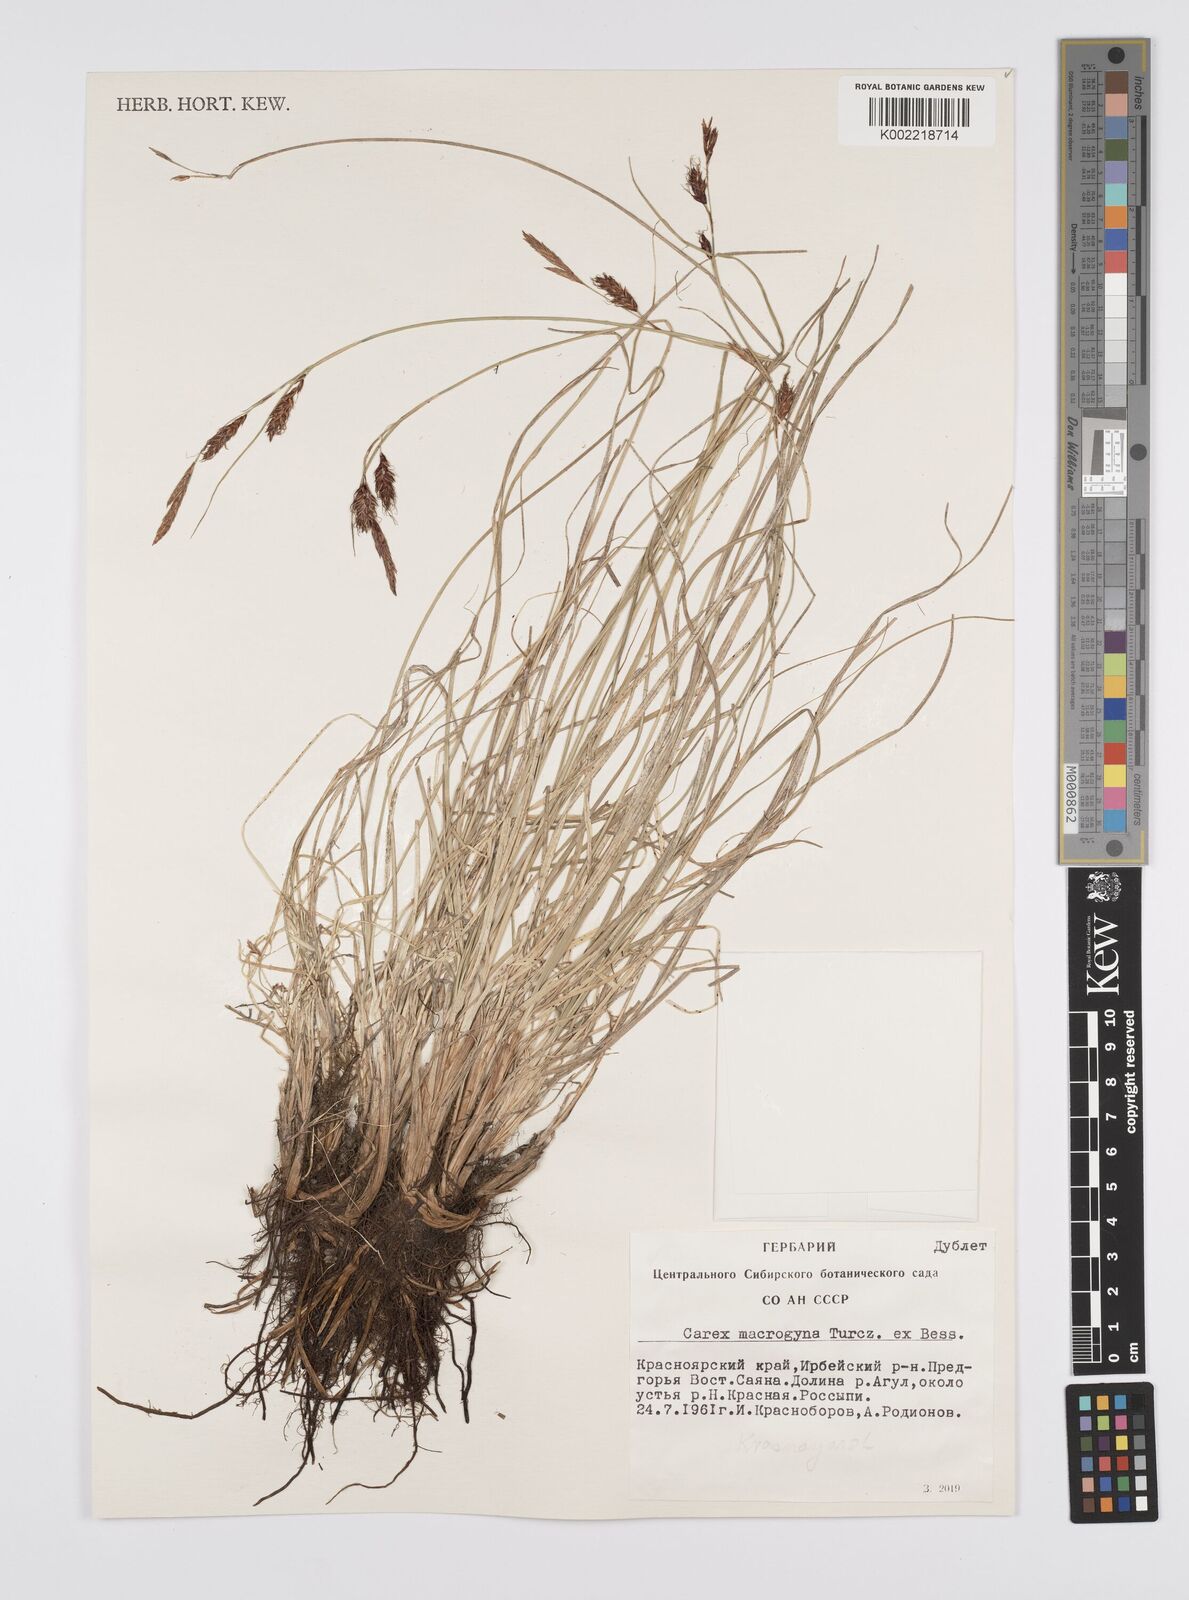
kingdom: Plantae
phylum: Tracheophyta
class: Liliopsida
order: Poales
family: Cyperaceae
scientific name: Cyperaceae
